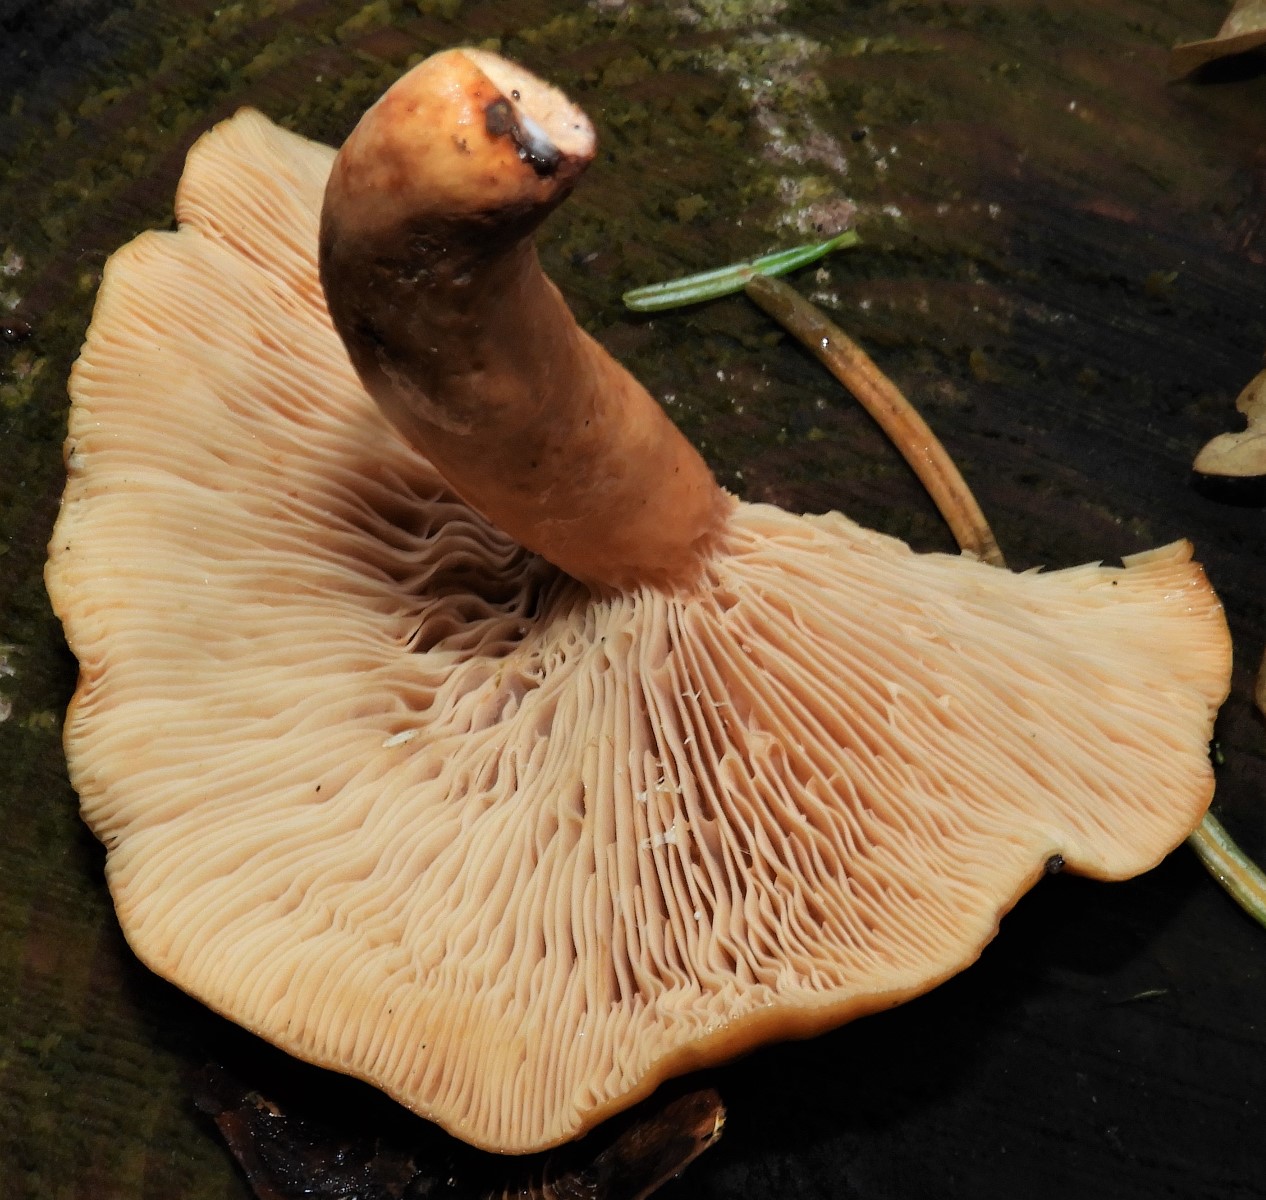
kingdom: Fungi
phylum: Basidiomycota
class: Agaricomycetes
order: Russulales
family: Russulaceae
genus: Lactarius
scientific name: Lactarius fulvissimus
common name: ræve-mælkehat
